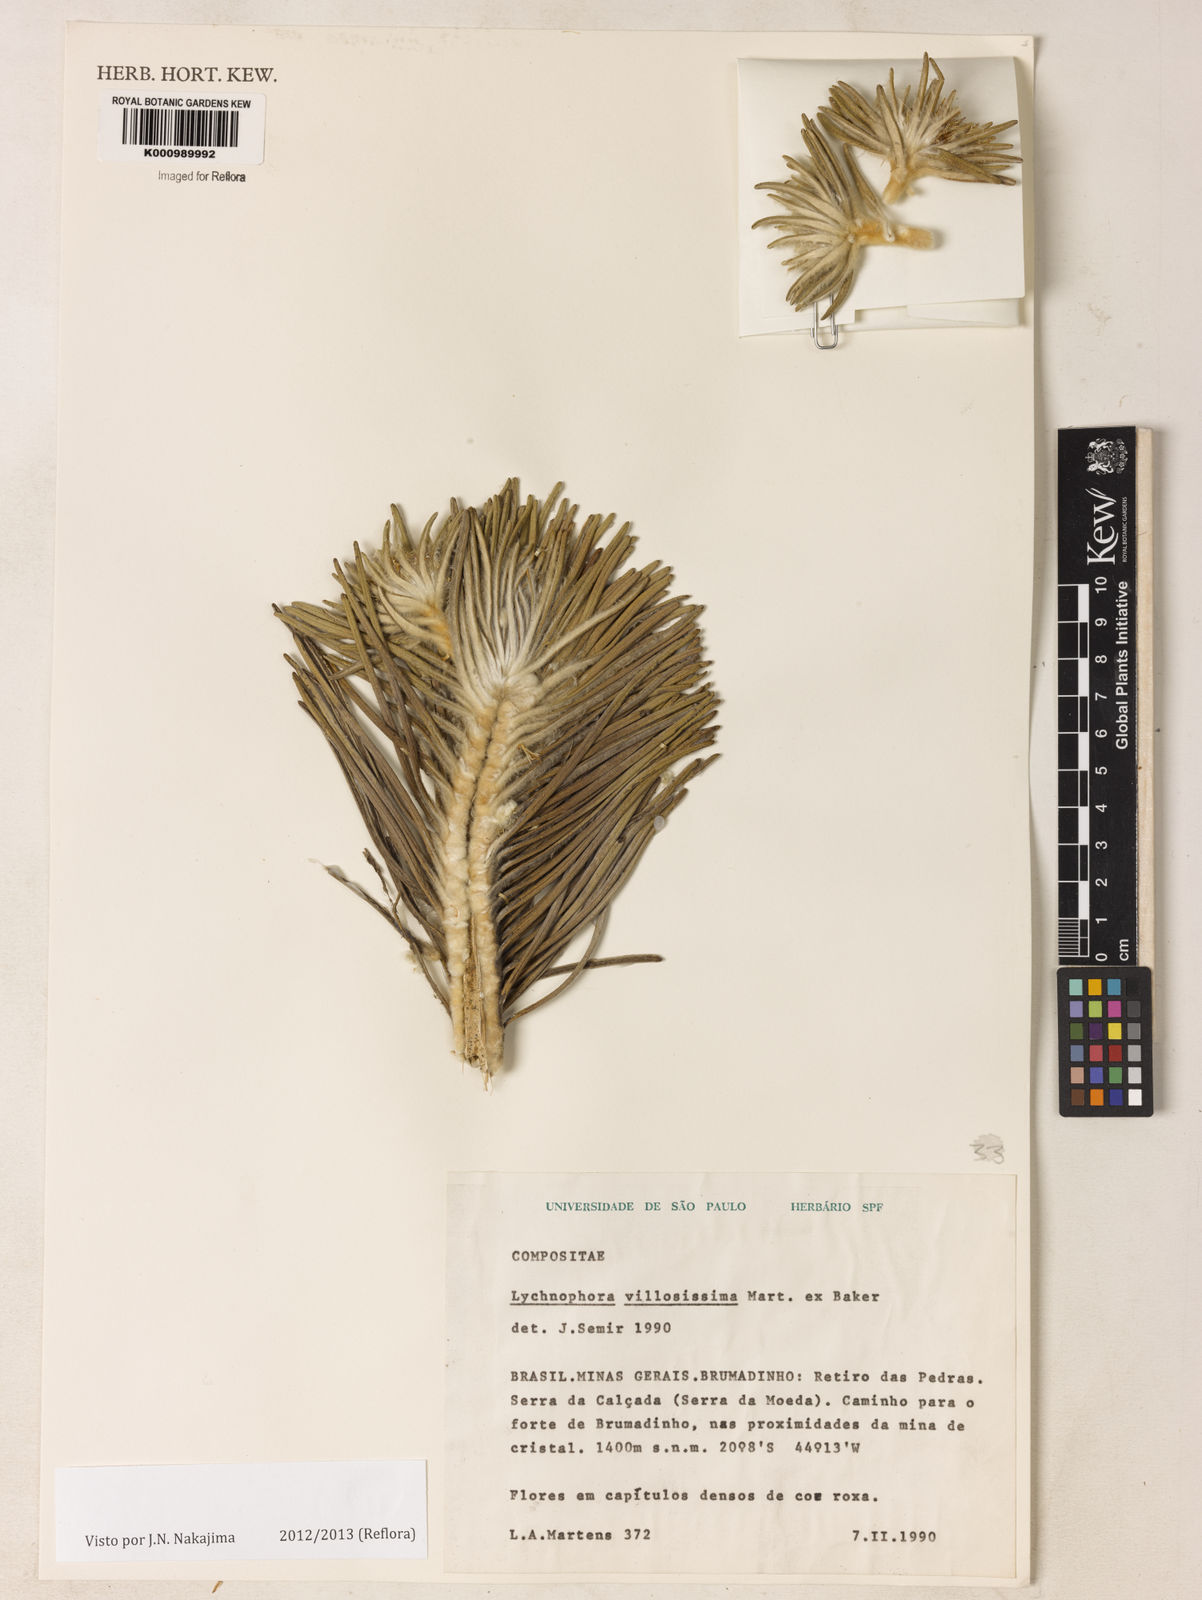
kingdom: Plantae
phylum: Tracheophyta
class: Magnoliopsida
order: Asterales
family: Asteraceae
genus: Lychnophora
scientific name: Lychnophora villosissima
